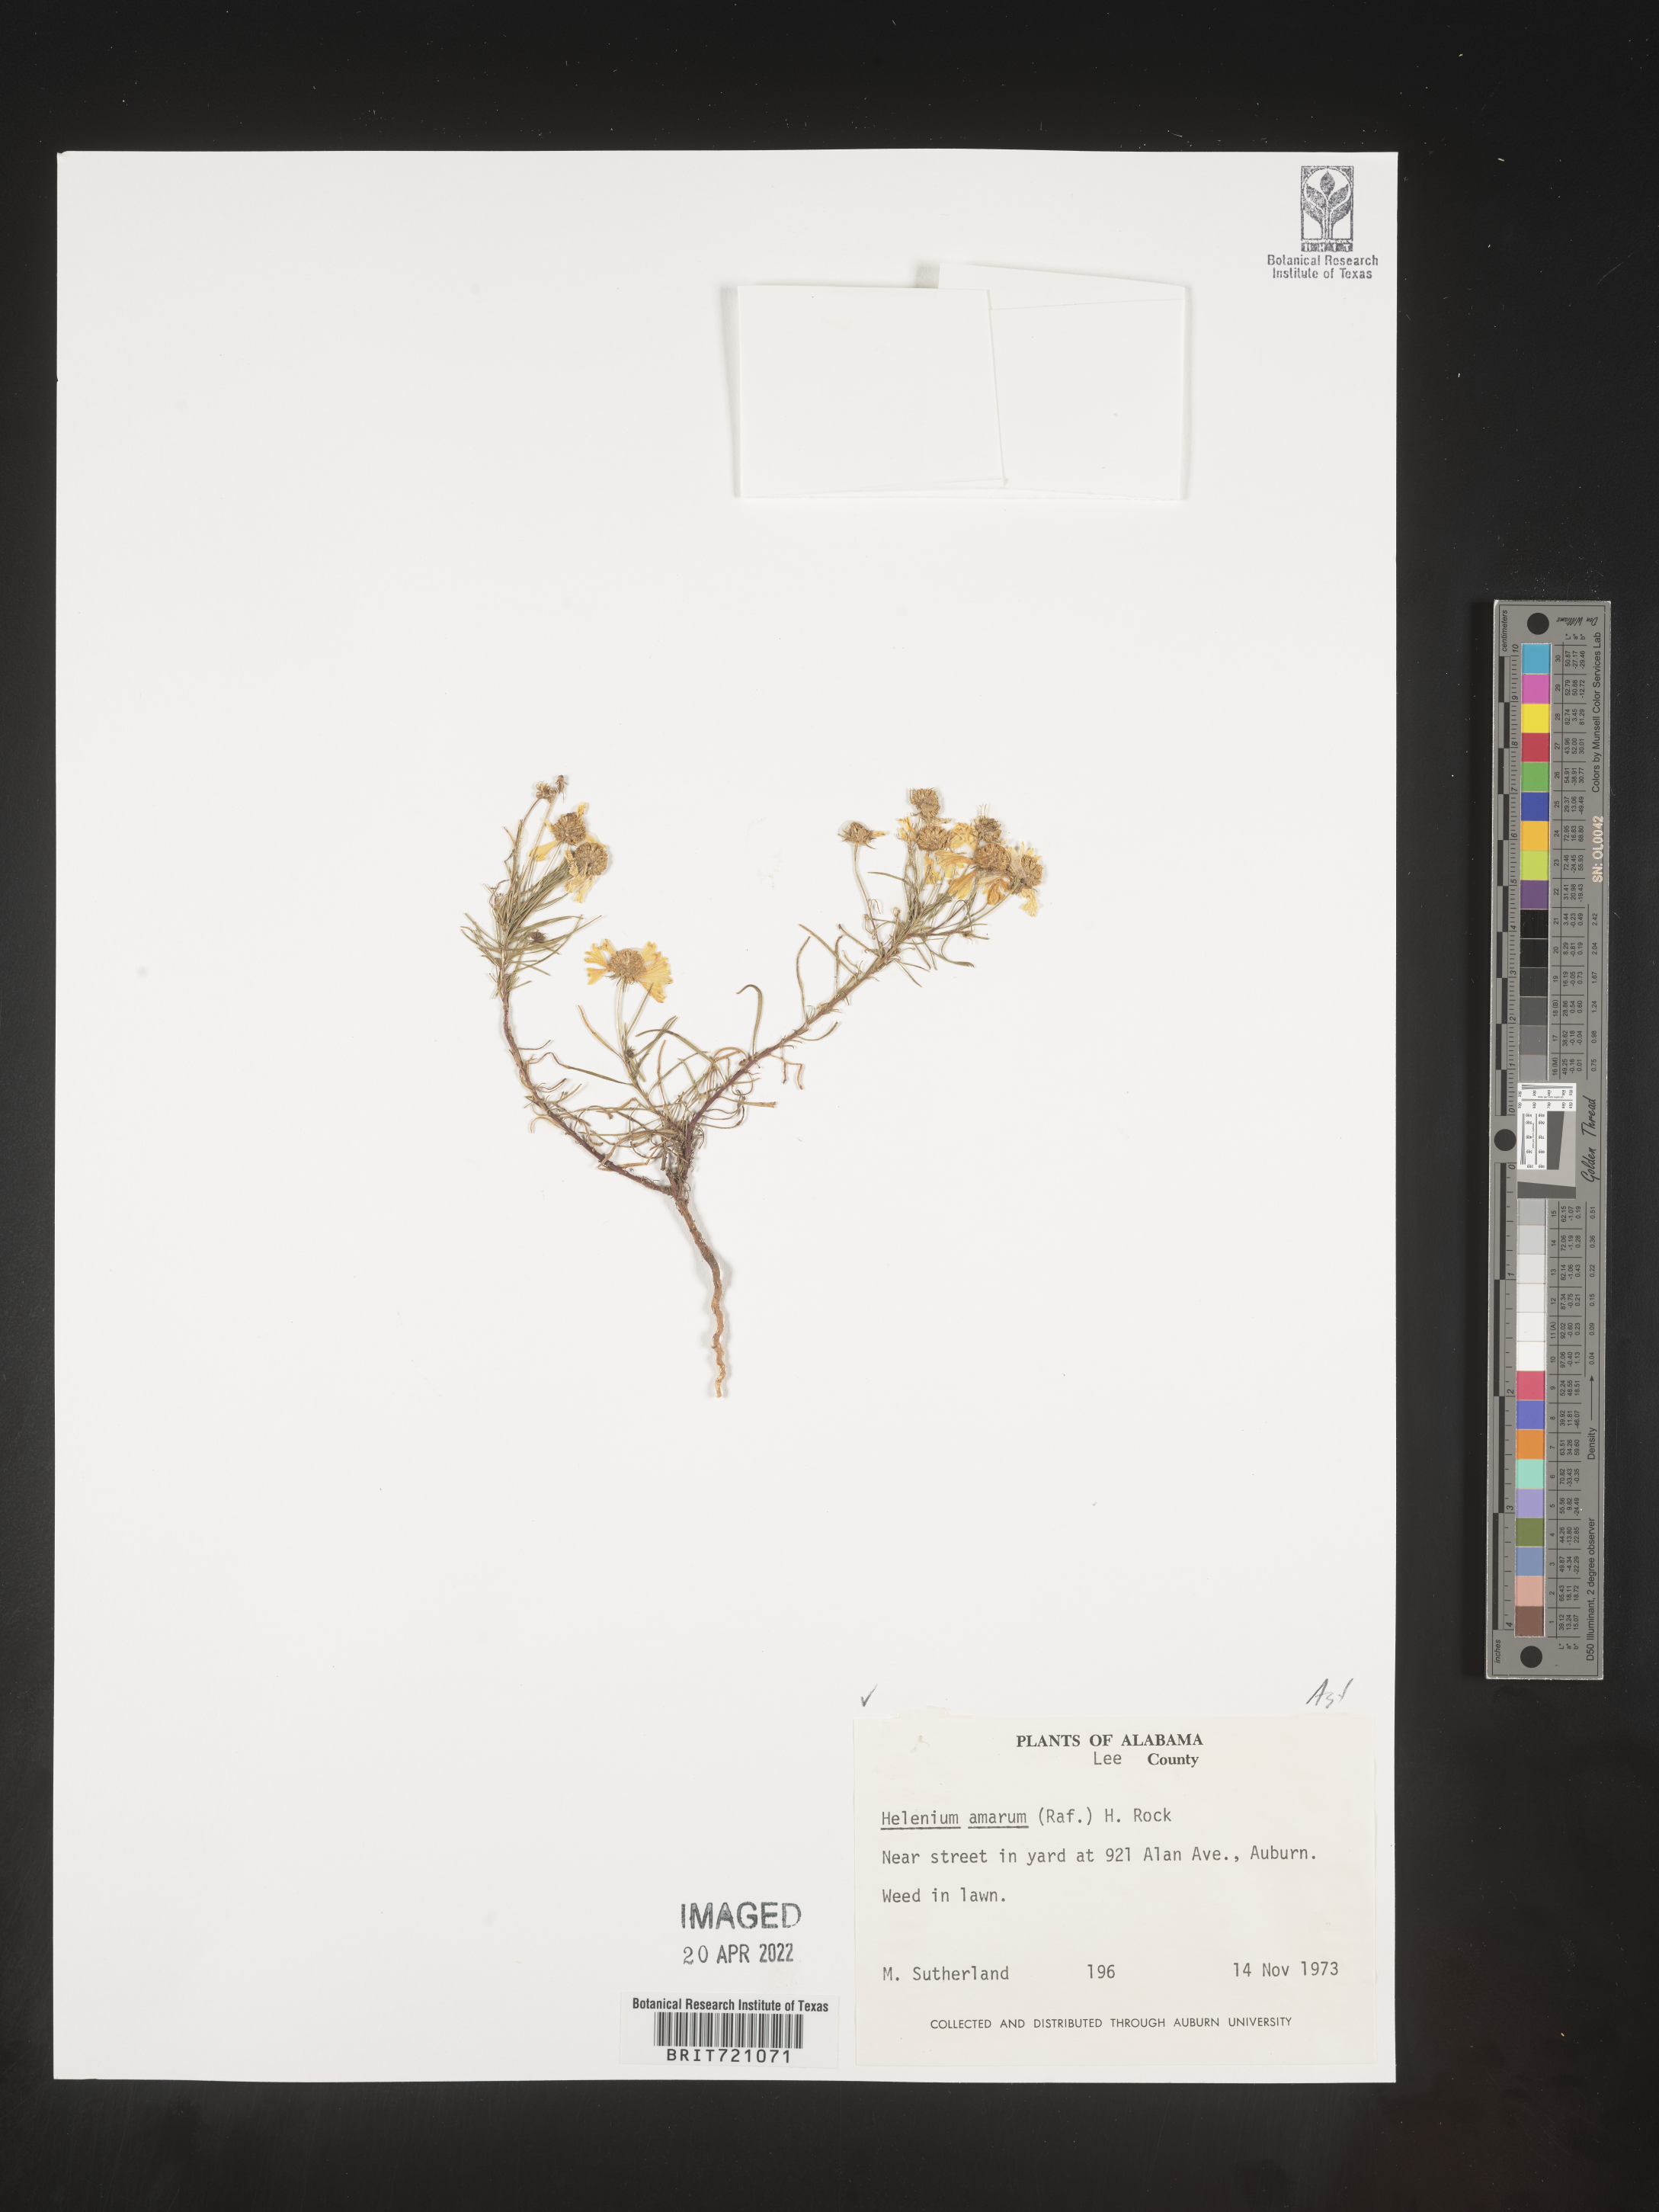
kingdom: Plantae
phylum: Tracheophyta
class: Magnoliopsida
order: Asterales
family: Asteraceae
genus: Helenium
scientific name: Helenium amarum
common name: Bitter sneezeweed
